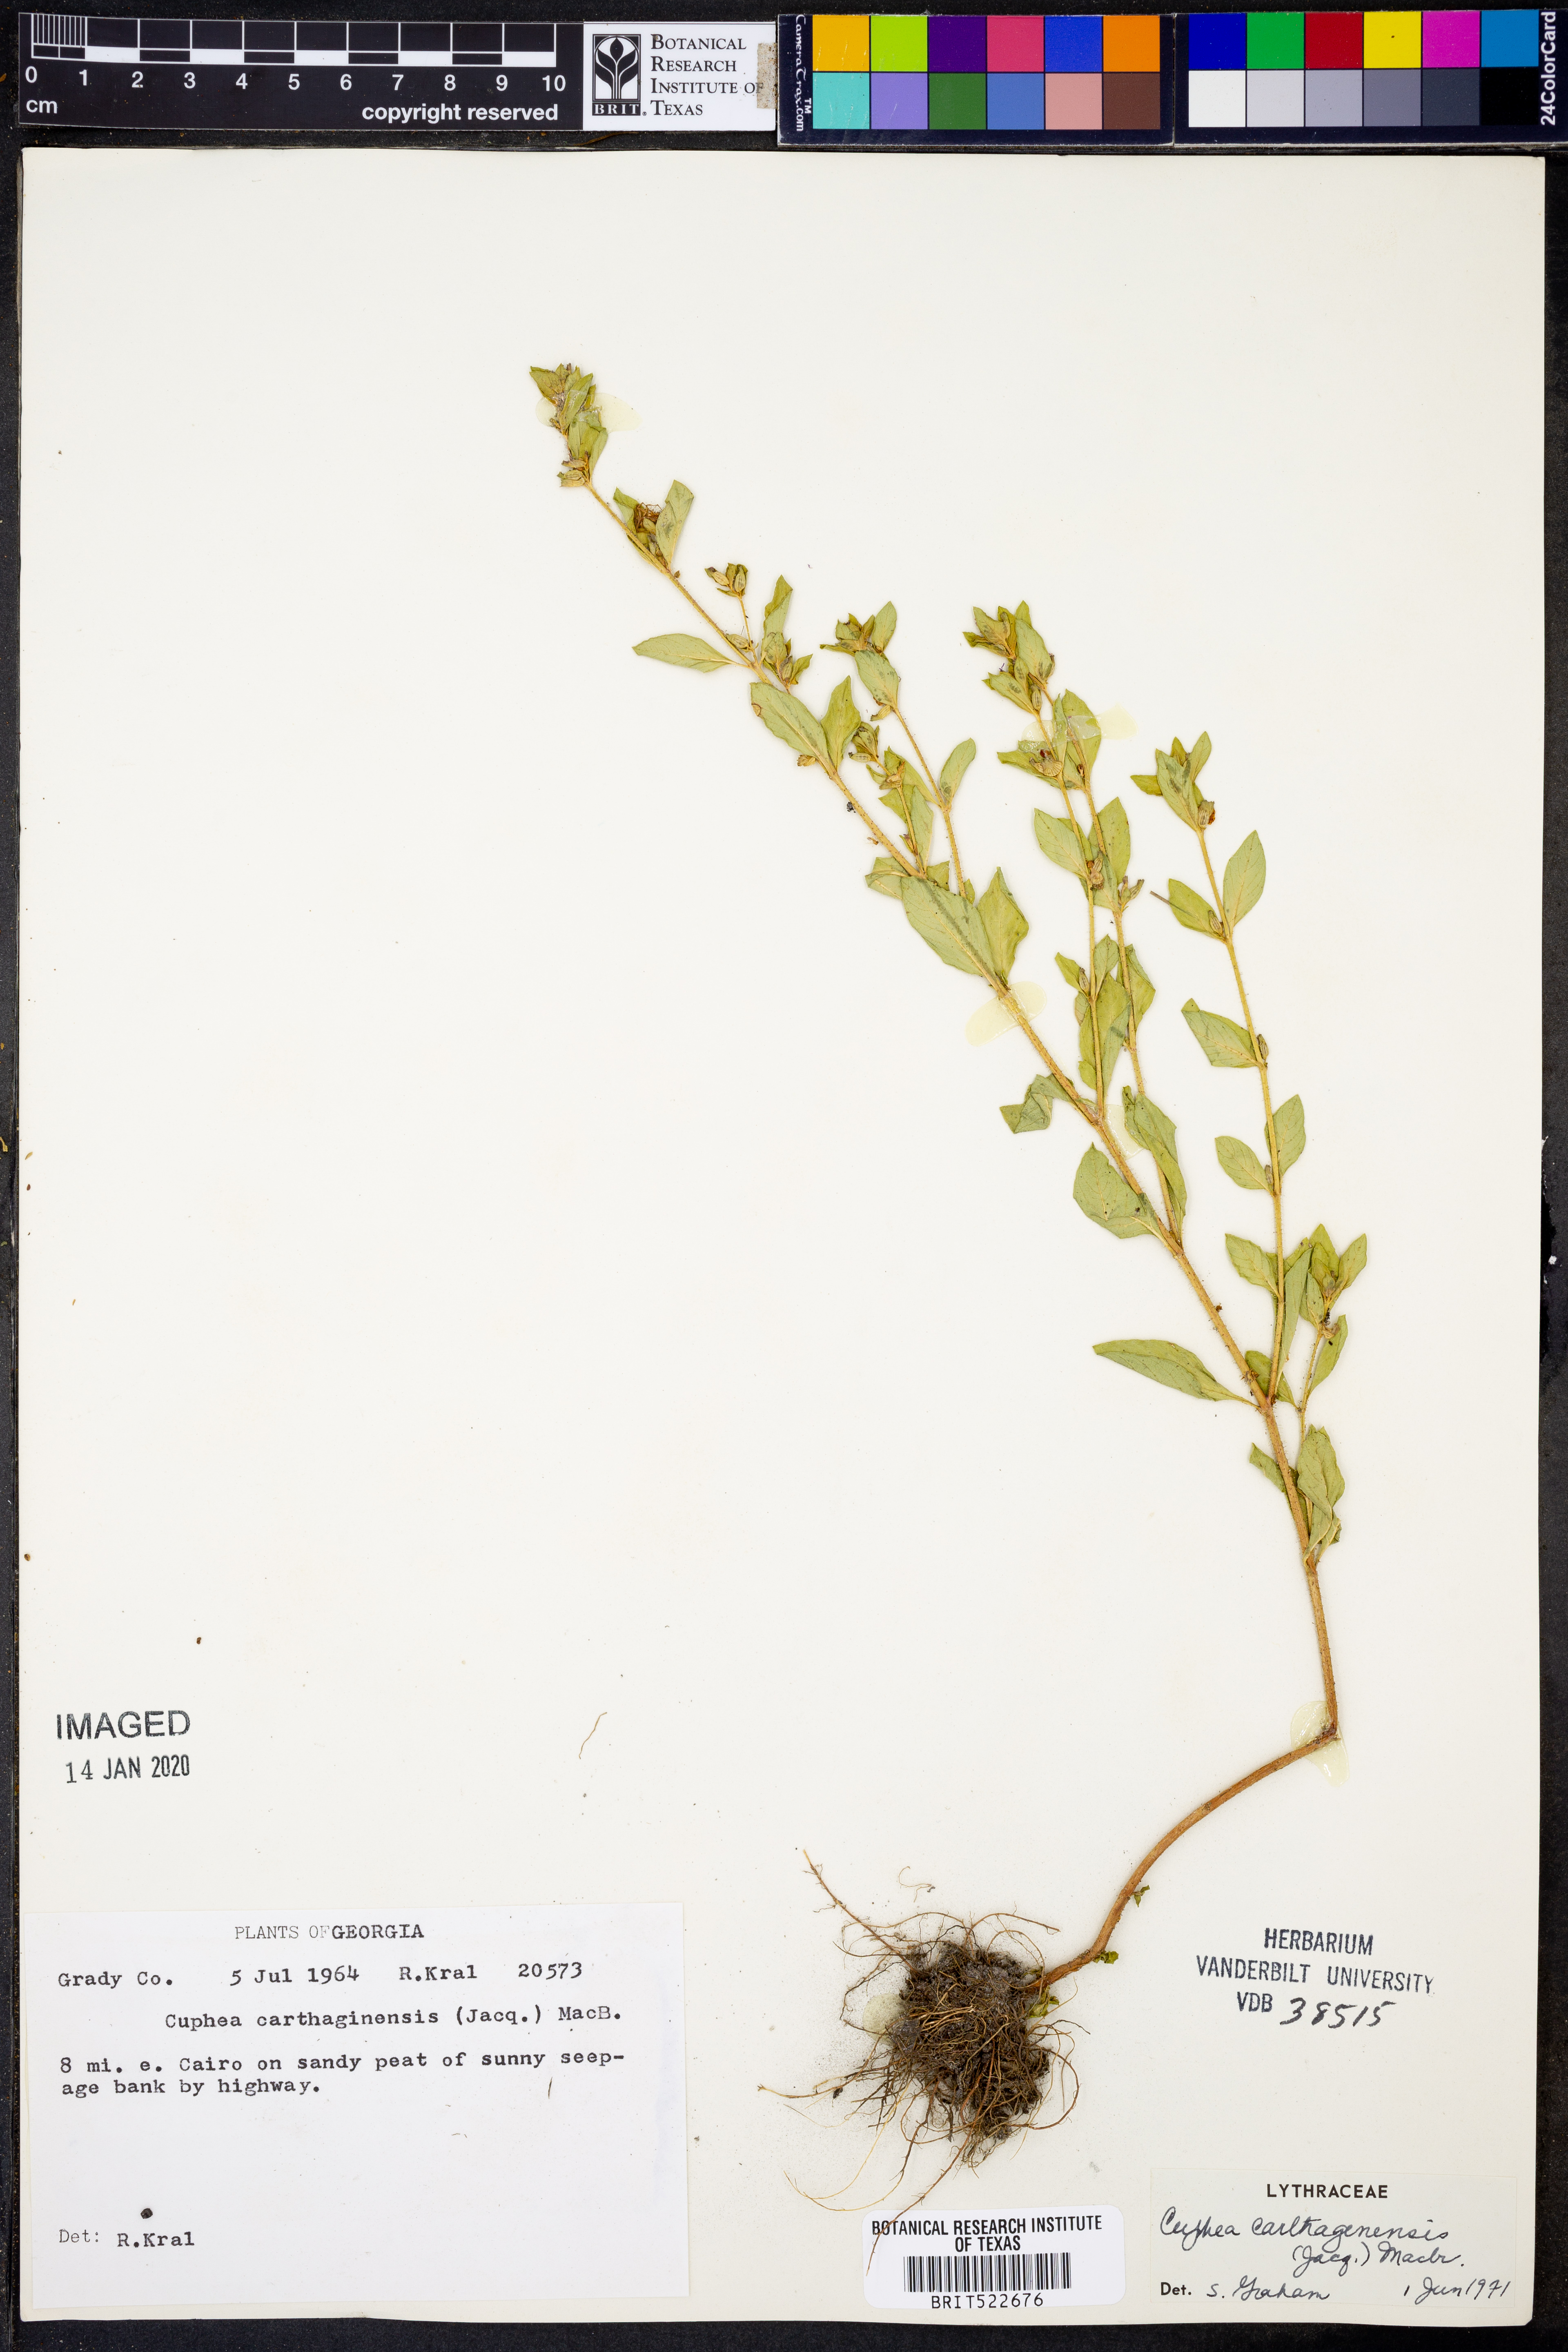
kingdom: Plantae
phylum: Tracheophyta
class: Magnoliopsida
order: Myrtales
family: Lythraceae
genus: Cuphea
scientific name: Cuphea carthagenensis
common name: Colombian waxweed
